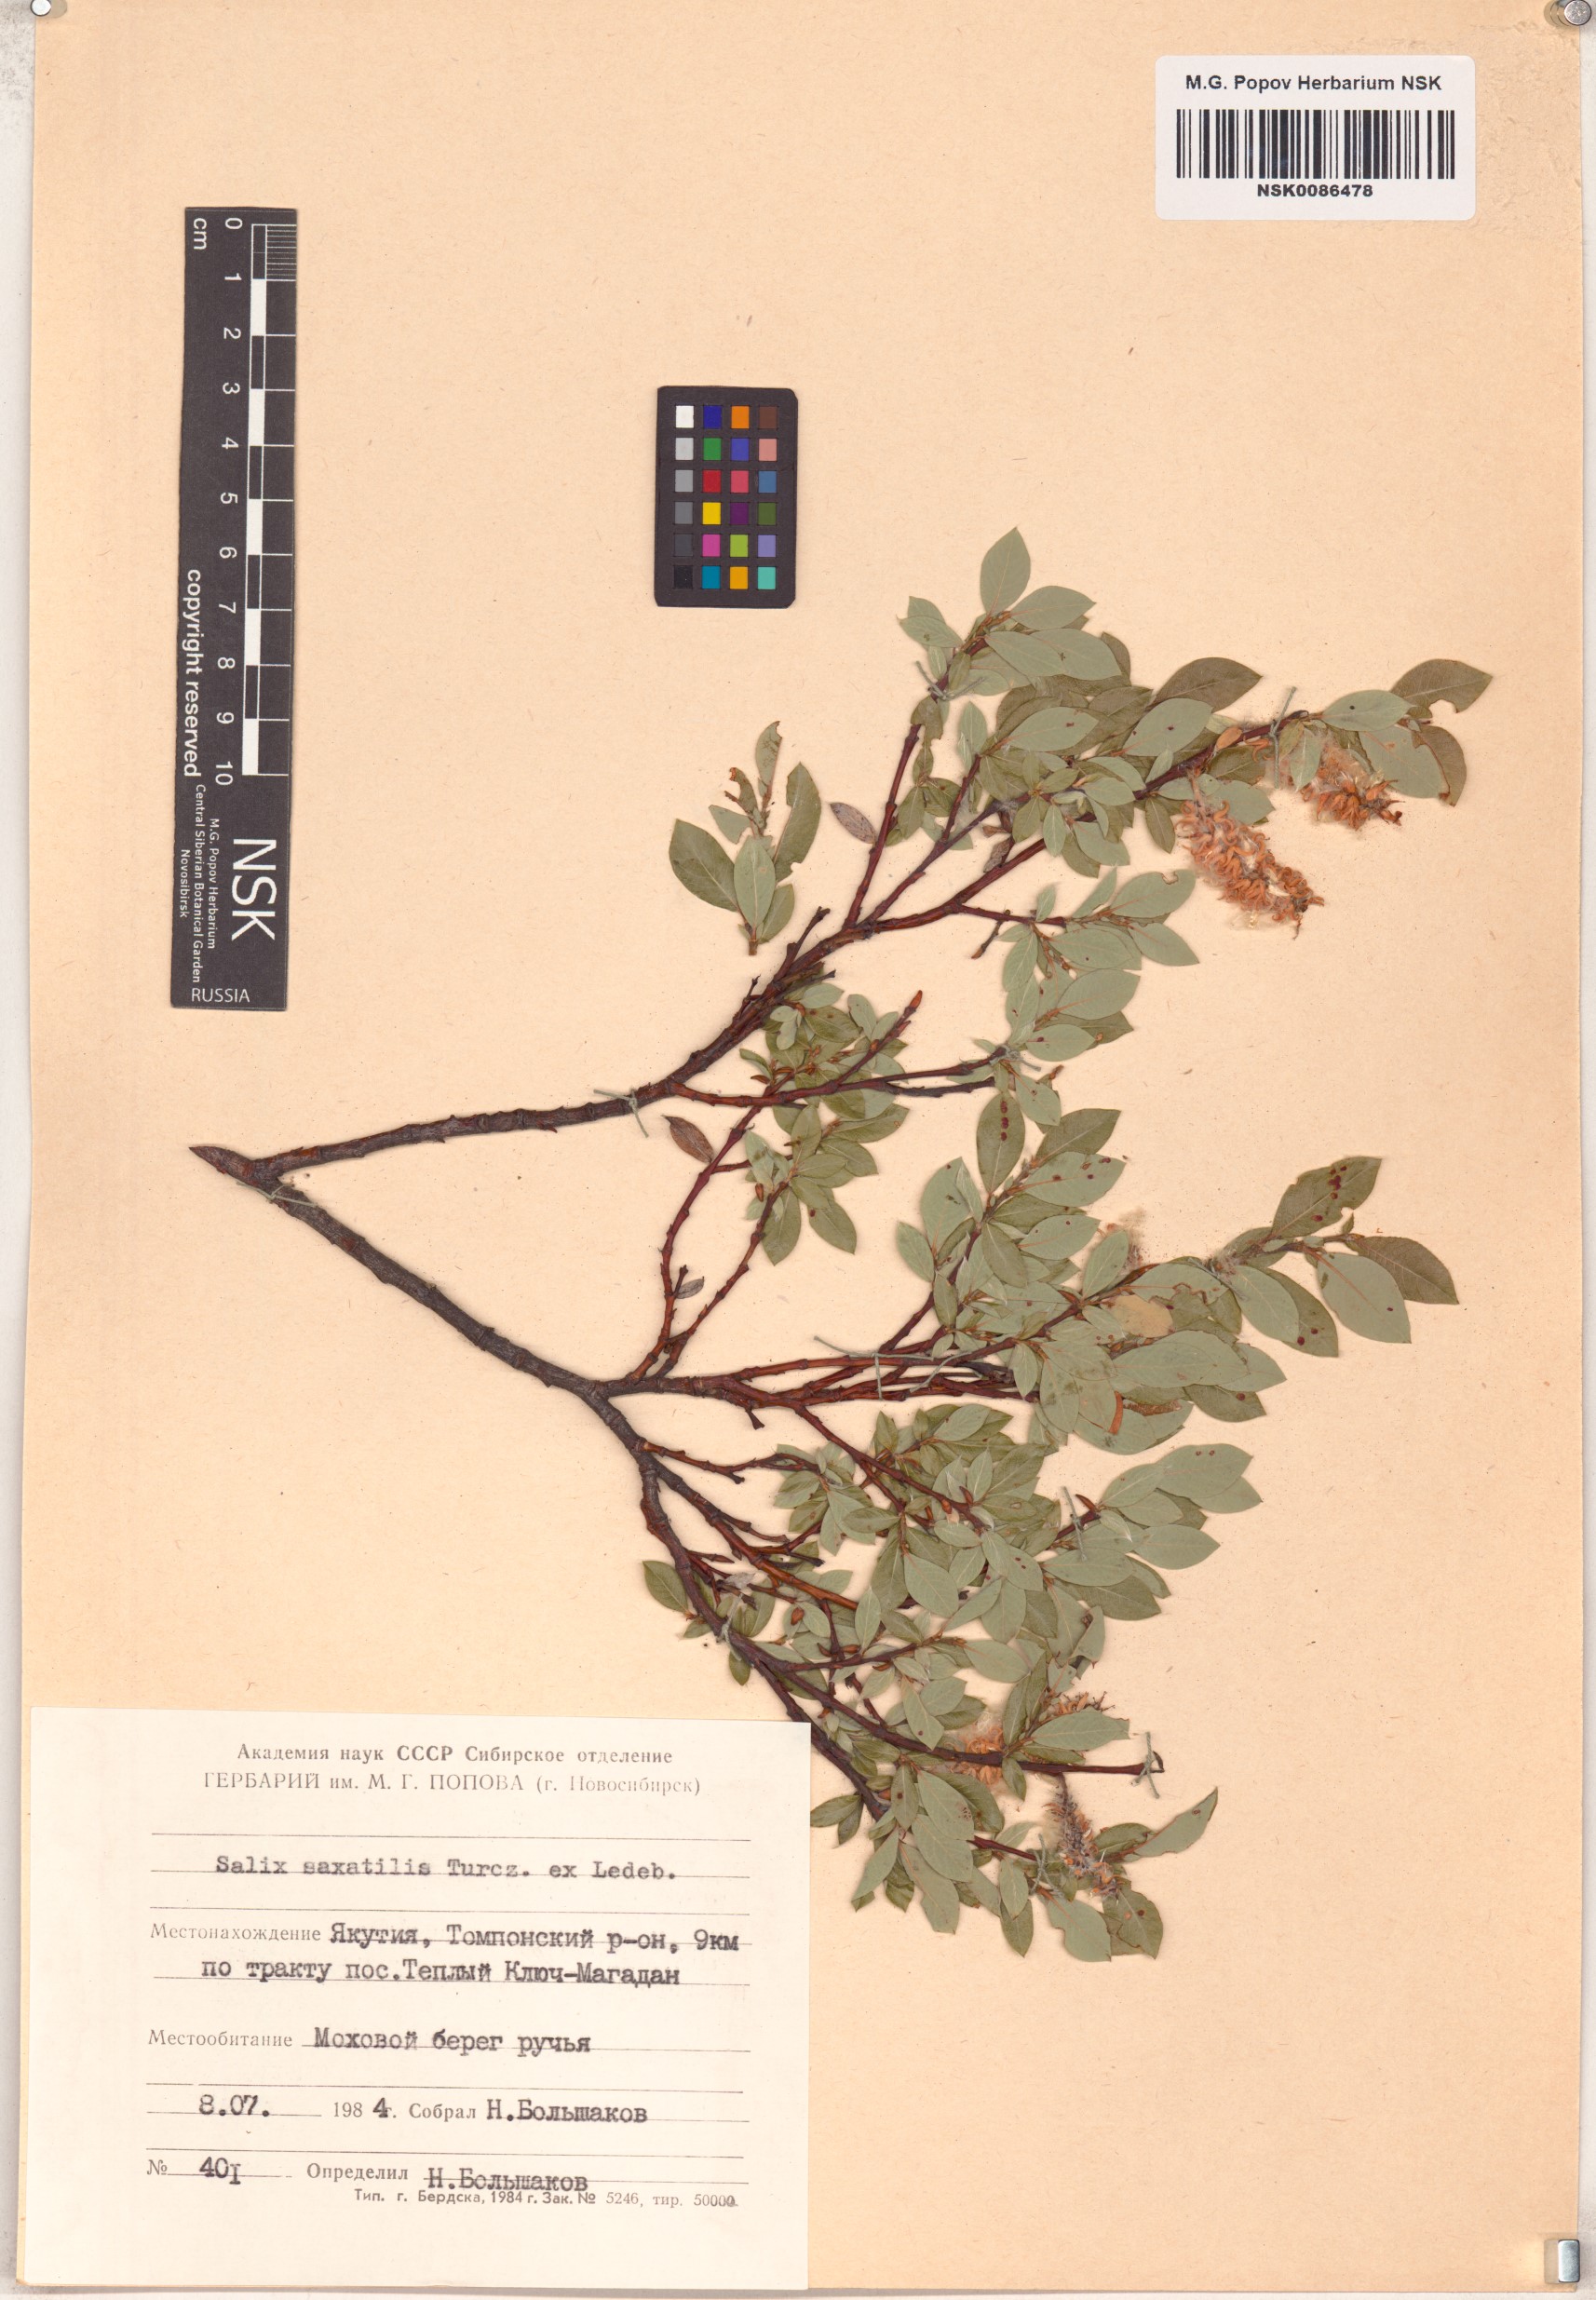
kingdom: Plantae
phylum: Tracheophyta
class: Magnoliopsida
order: Malpighiales
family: Salicaceae
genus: Salix
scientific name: Salix saxatilis
